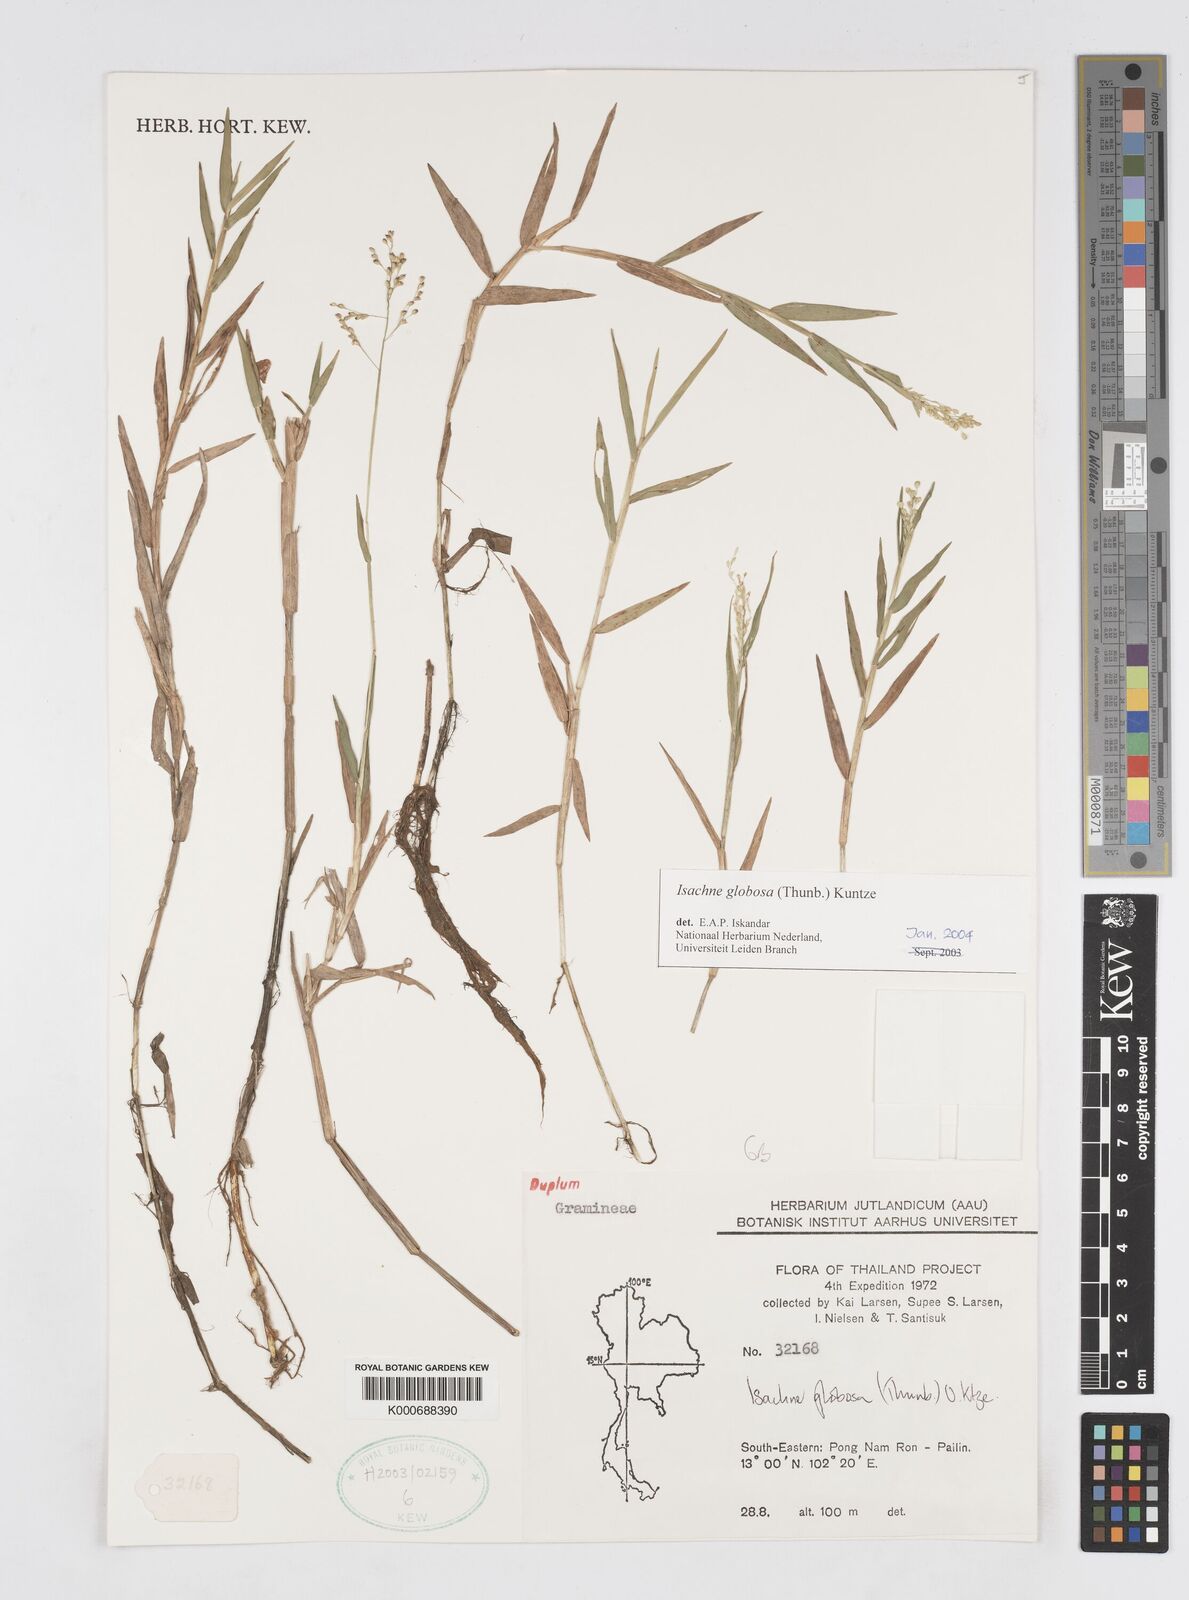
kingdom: Plantae
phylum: Tracheophyta
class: Liliopsida
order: Poales
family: Poaceae
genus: Isachne
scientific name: Isachne globosa
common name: Swamp millet
